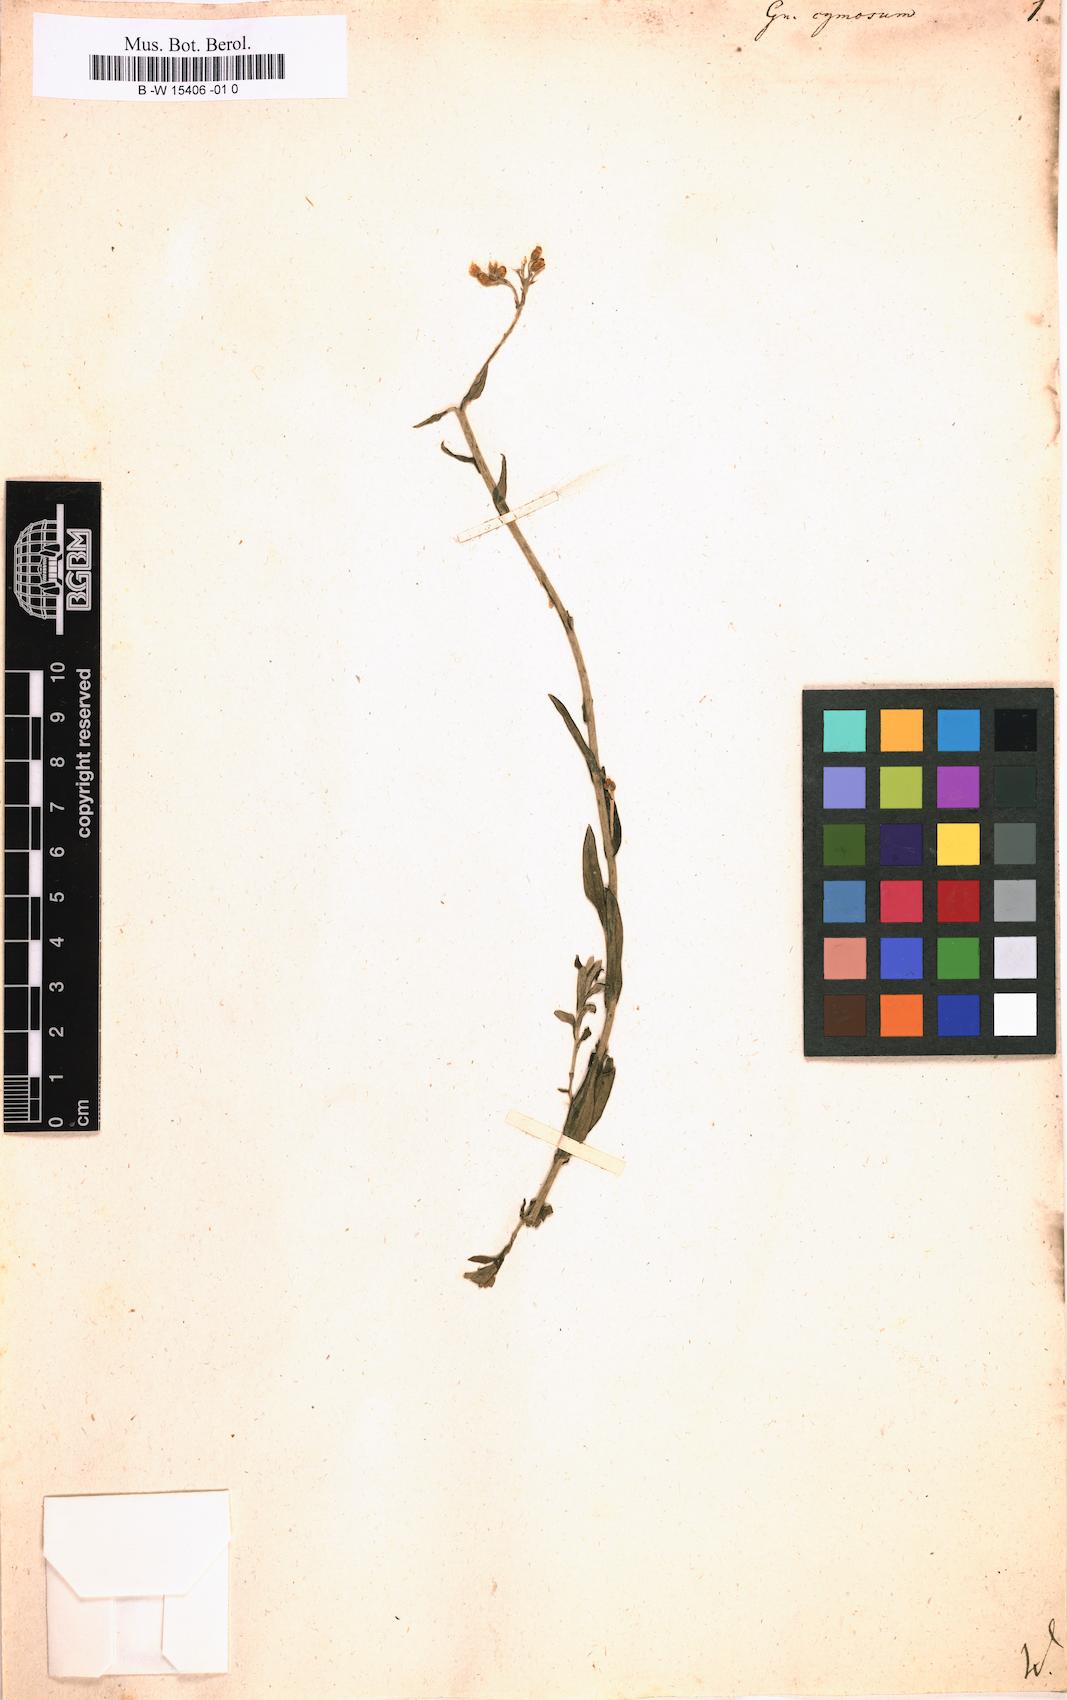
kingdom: Plantae
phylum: Tracheophyta
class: Magnoliopsida
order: Asterales
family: Asteraceae
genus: Helichrysum
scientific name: Helichrysum cymosum
